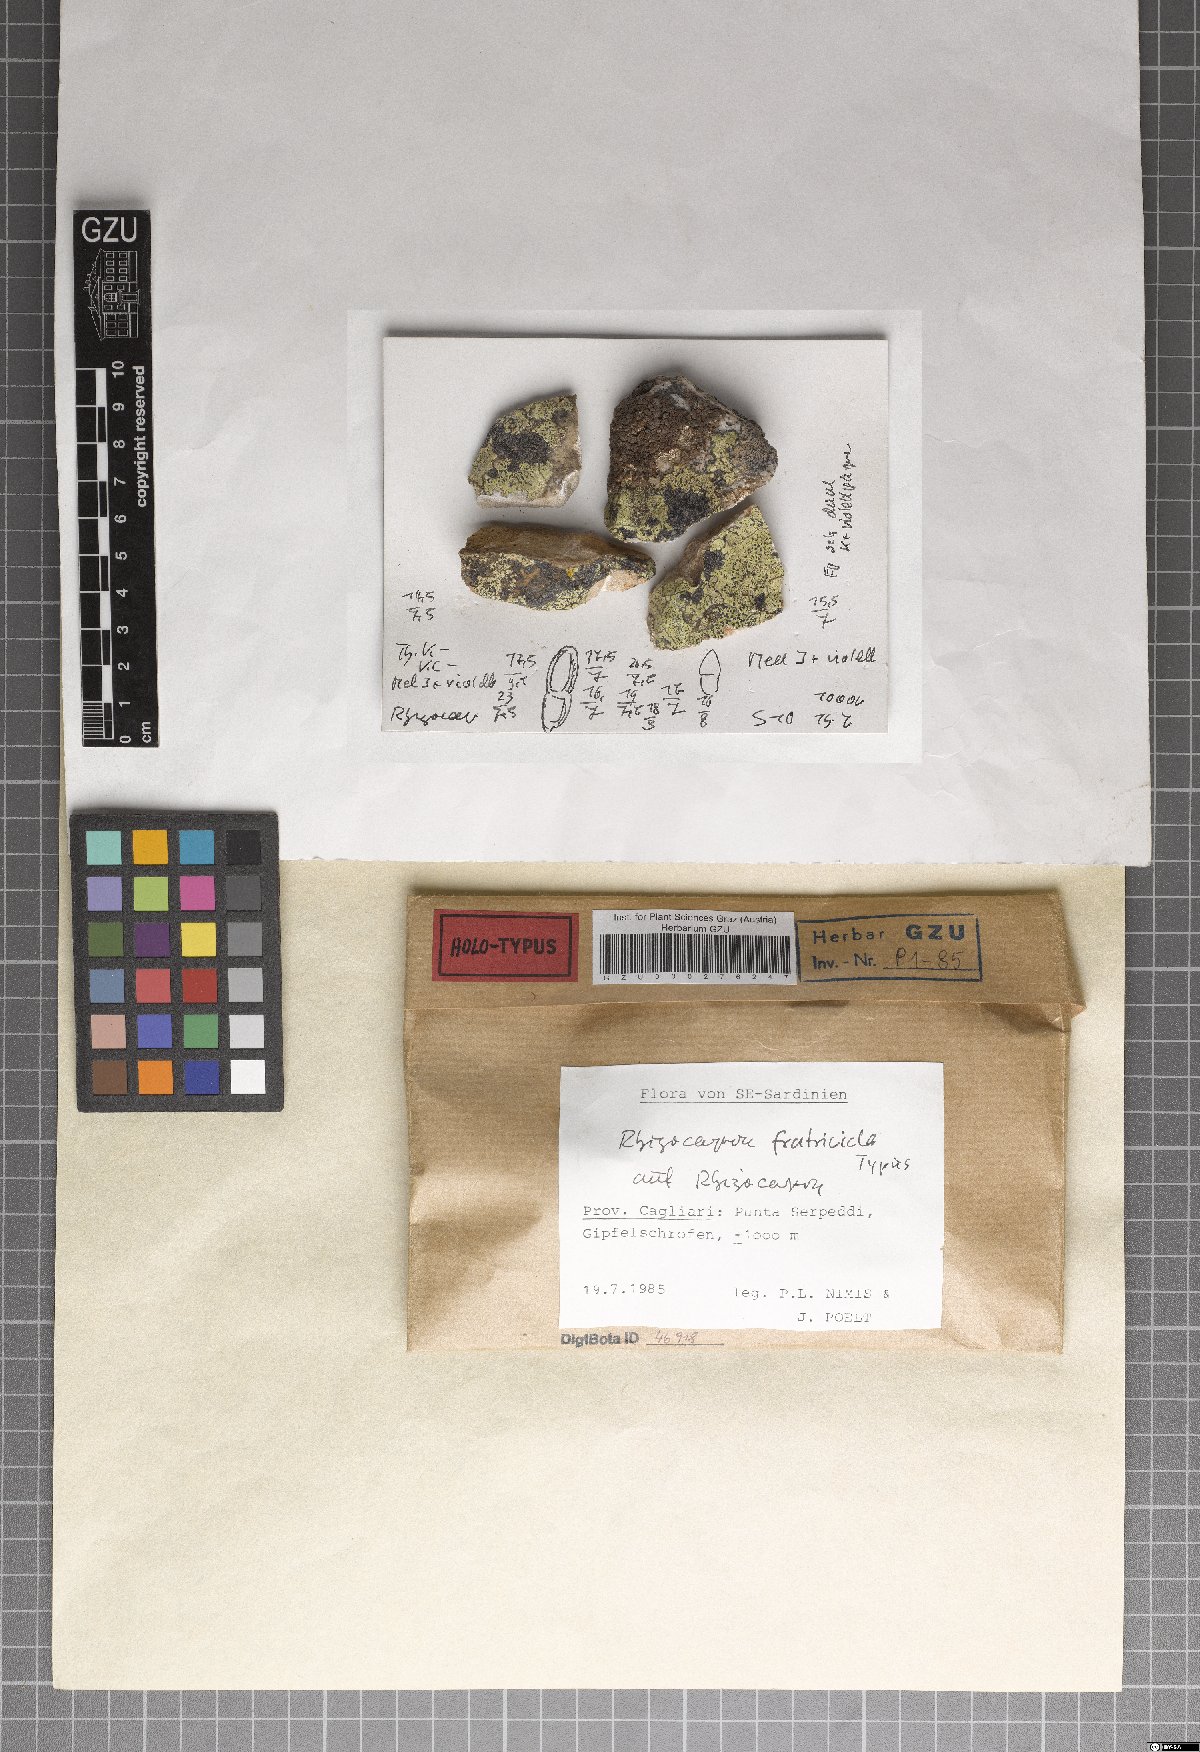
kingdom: Fungi
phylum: Ascomycota
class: Lecanoromycetes
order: Rhizocarpales
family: Rhizocarpaceae
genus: Rhizocarpon
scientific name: Rhizocarpon fratricida
